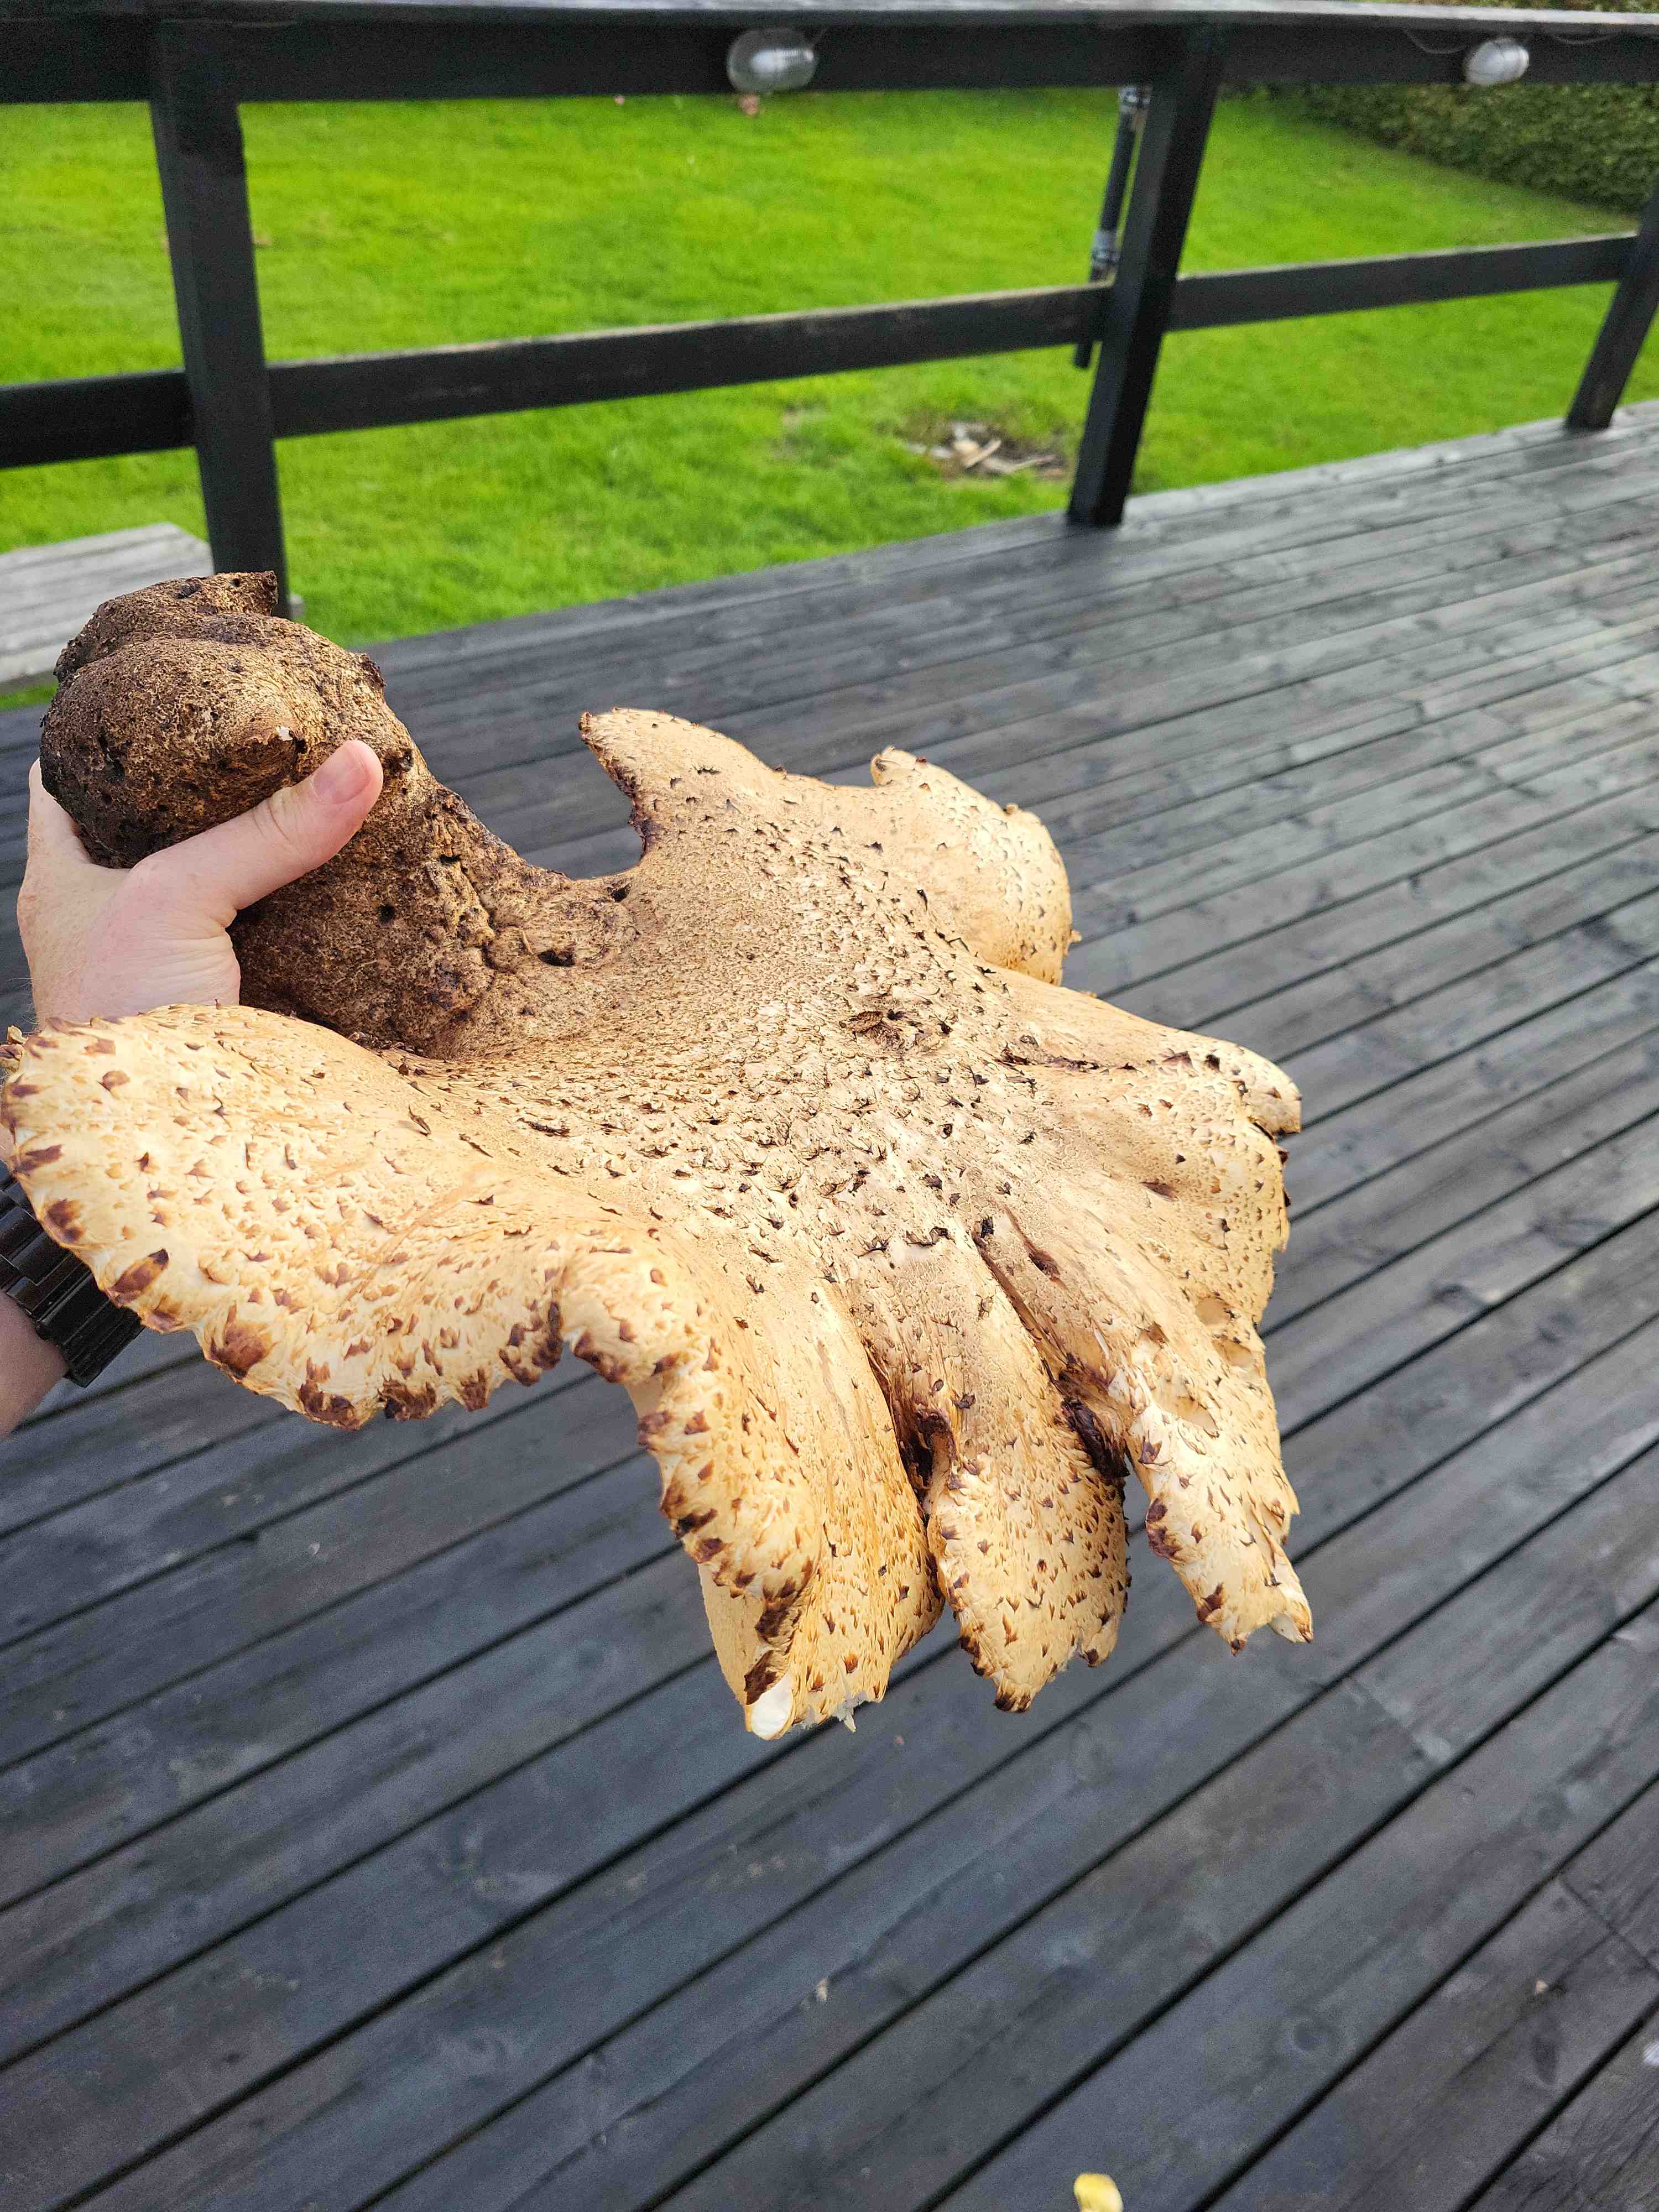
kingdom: Fungi
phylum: Basidiomycota
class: Agaricomycetes
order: Polyporales
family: Polyporaceae
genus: Cerioporus
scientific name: Cerioporus squamosus
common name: skællet stilkporesvamp
